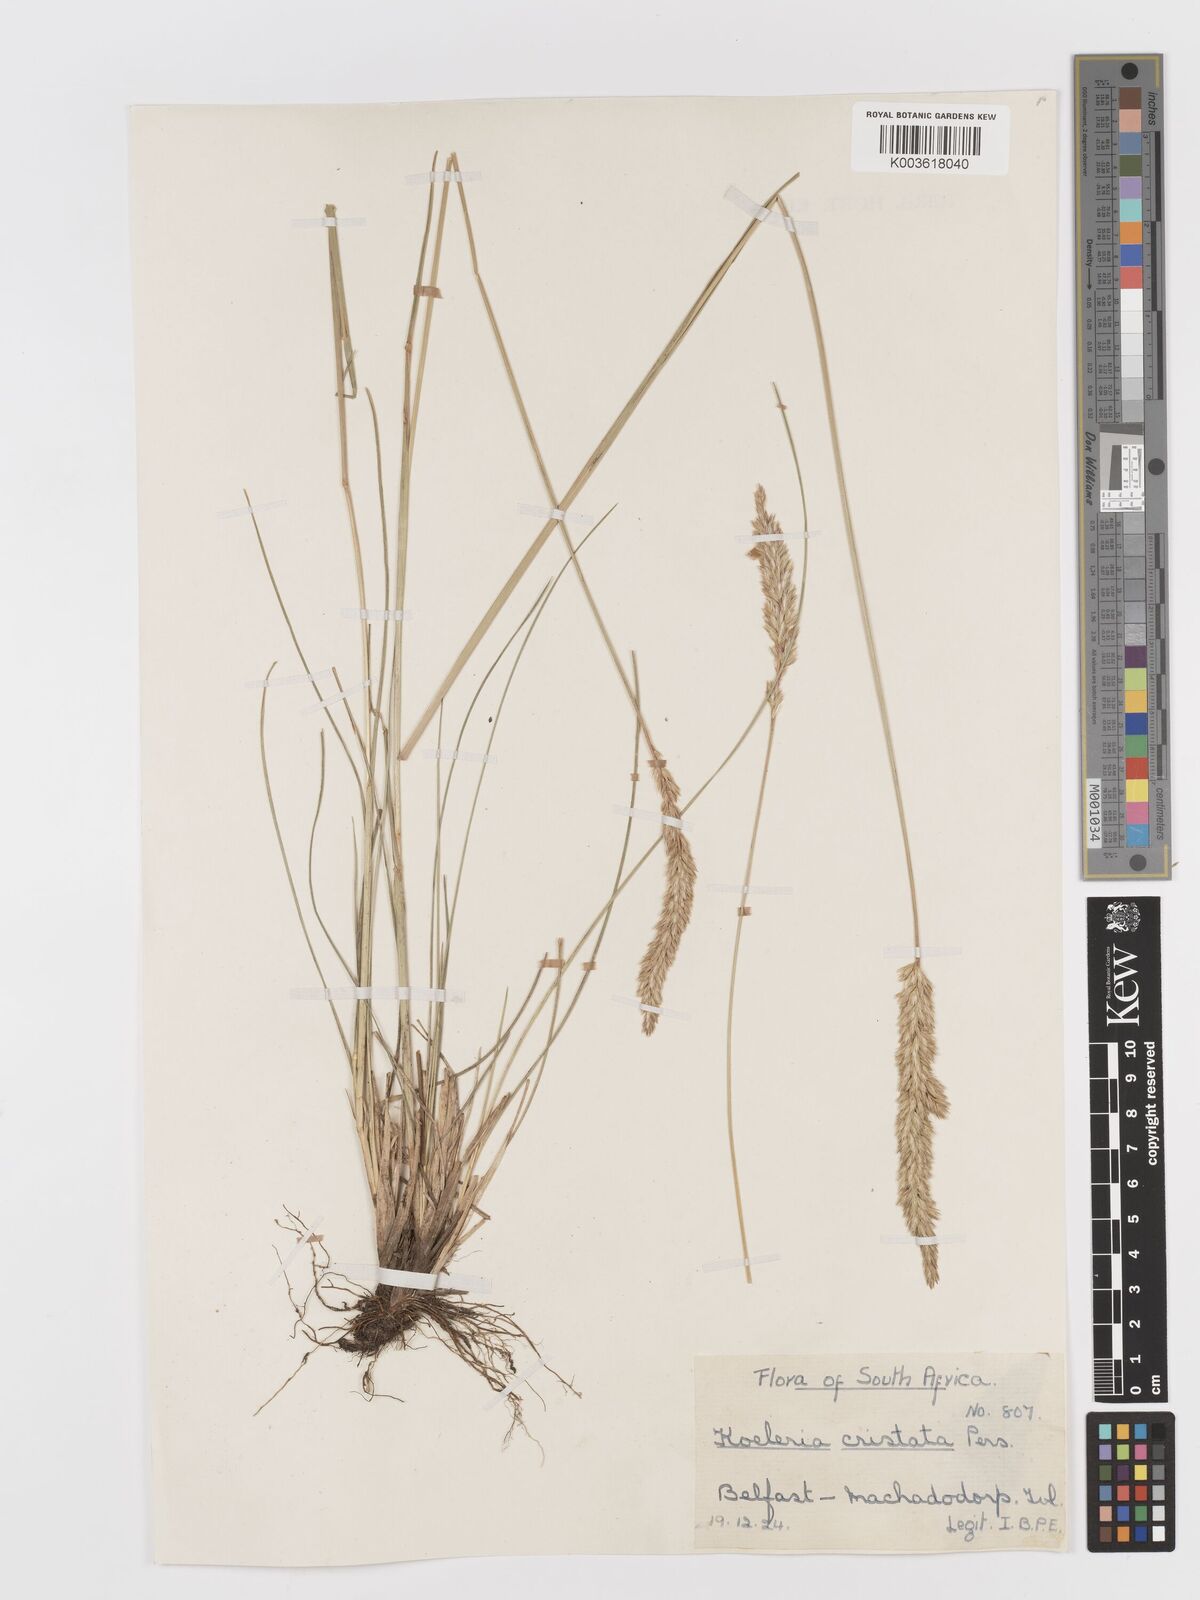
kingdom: Plantae
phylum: Tracheophyta
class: Liliopsida
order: Poales
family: Poaceae
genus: Koeleria
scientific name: Koeleria capensis
